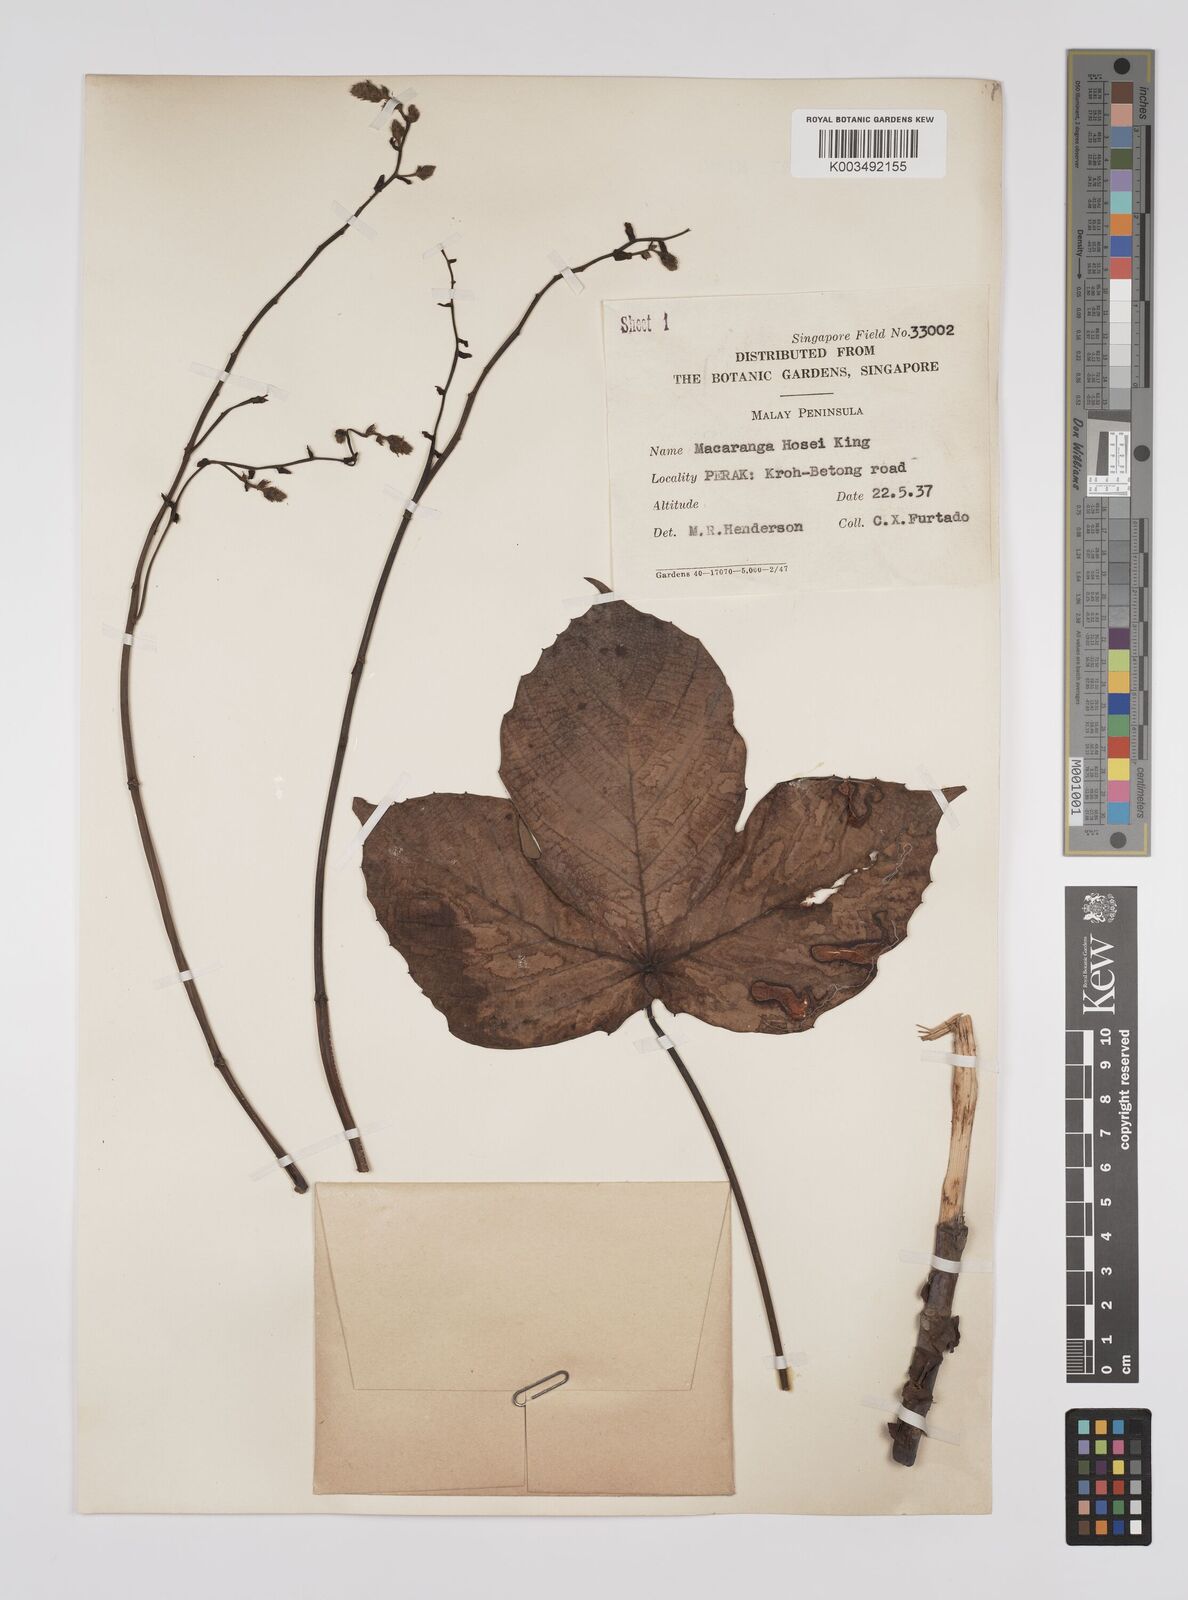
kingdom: Plantae
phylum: Tracheophyta
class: Magnoliopsida
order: Malpighiales
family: Euphorbiaceae
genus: Macaranga
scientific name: Macaranga hosei
